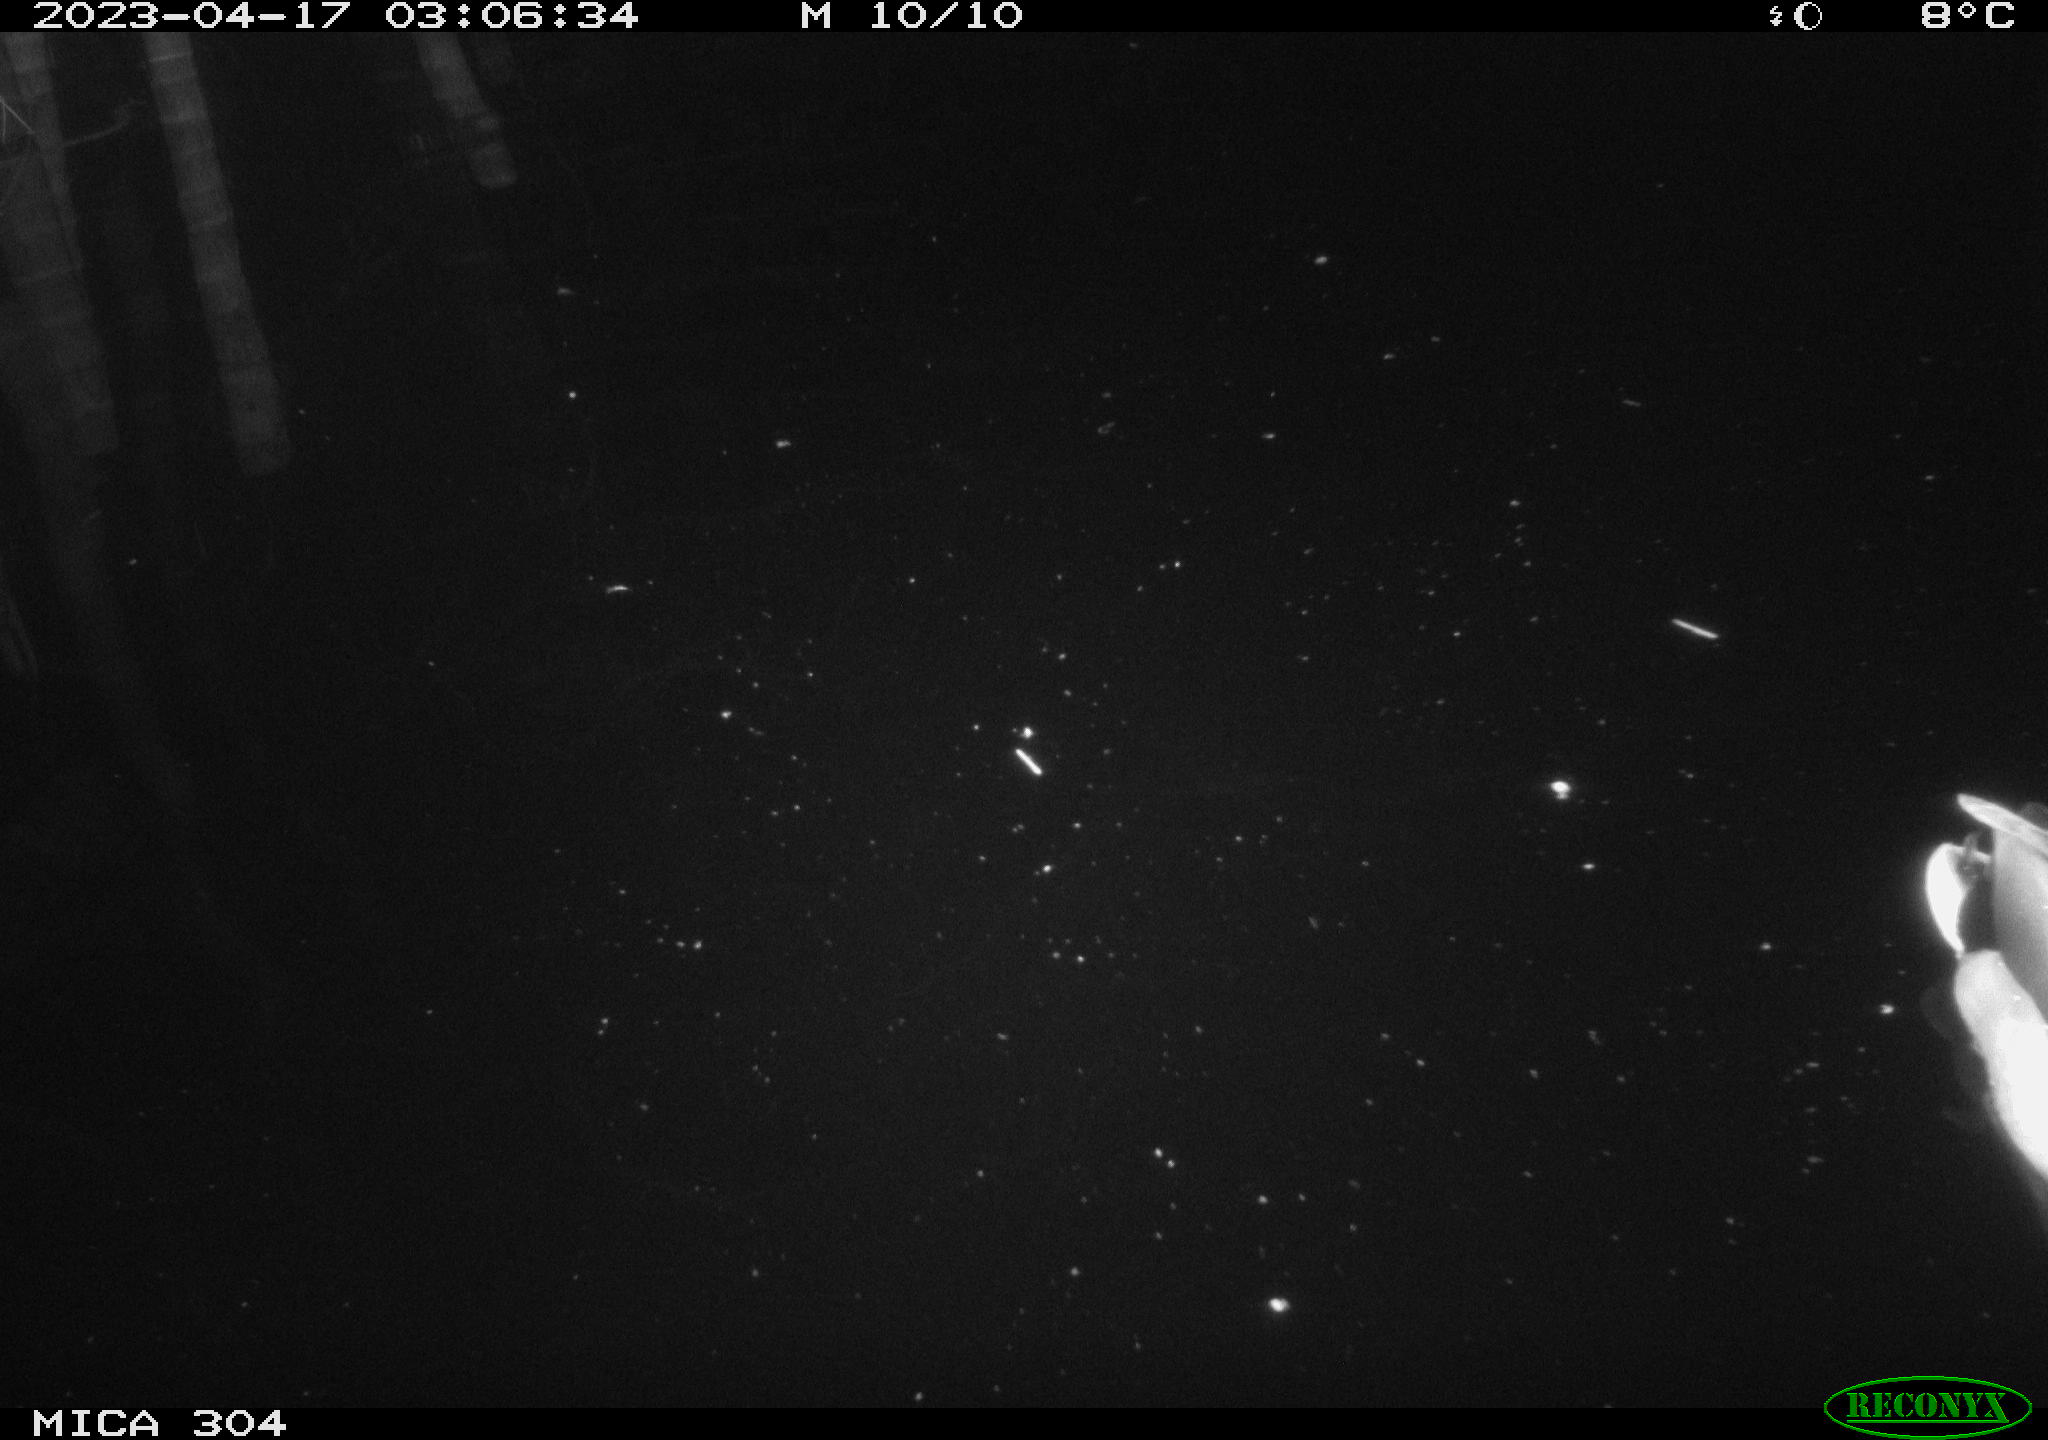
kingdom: Animalia
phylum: Chordata
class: Aves
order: Anseriformes
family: Anatidae
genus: Anas
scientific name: Anas
